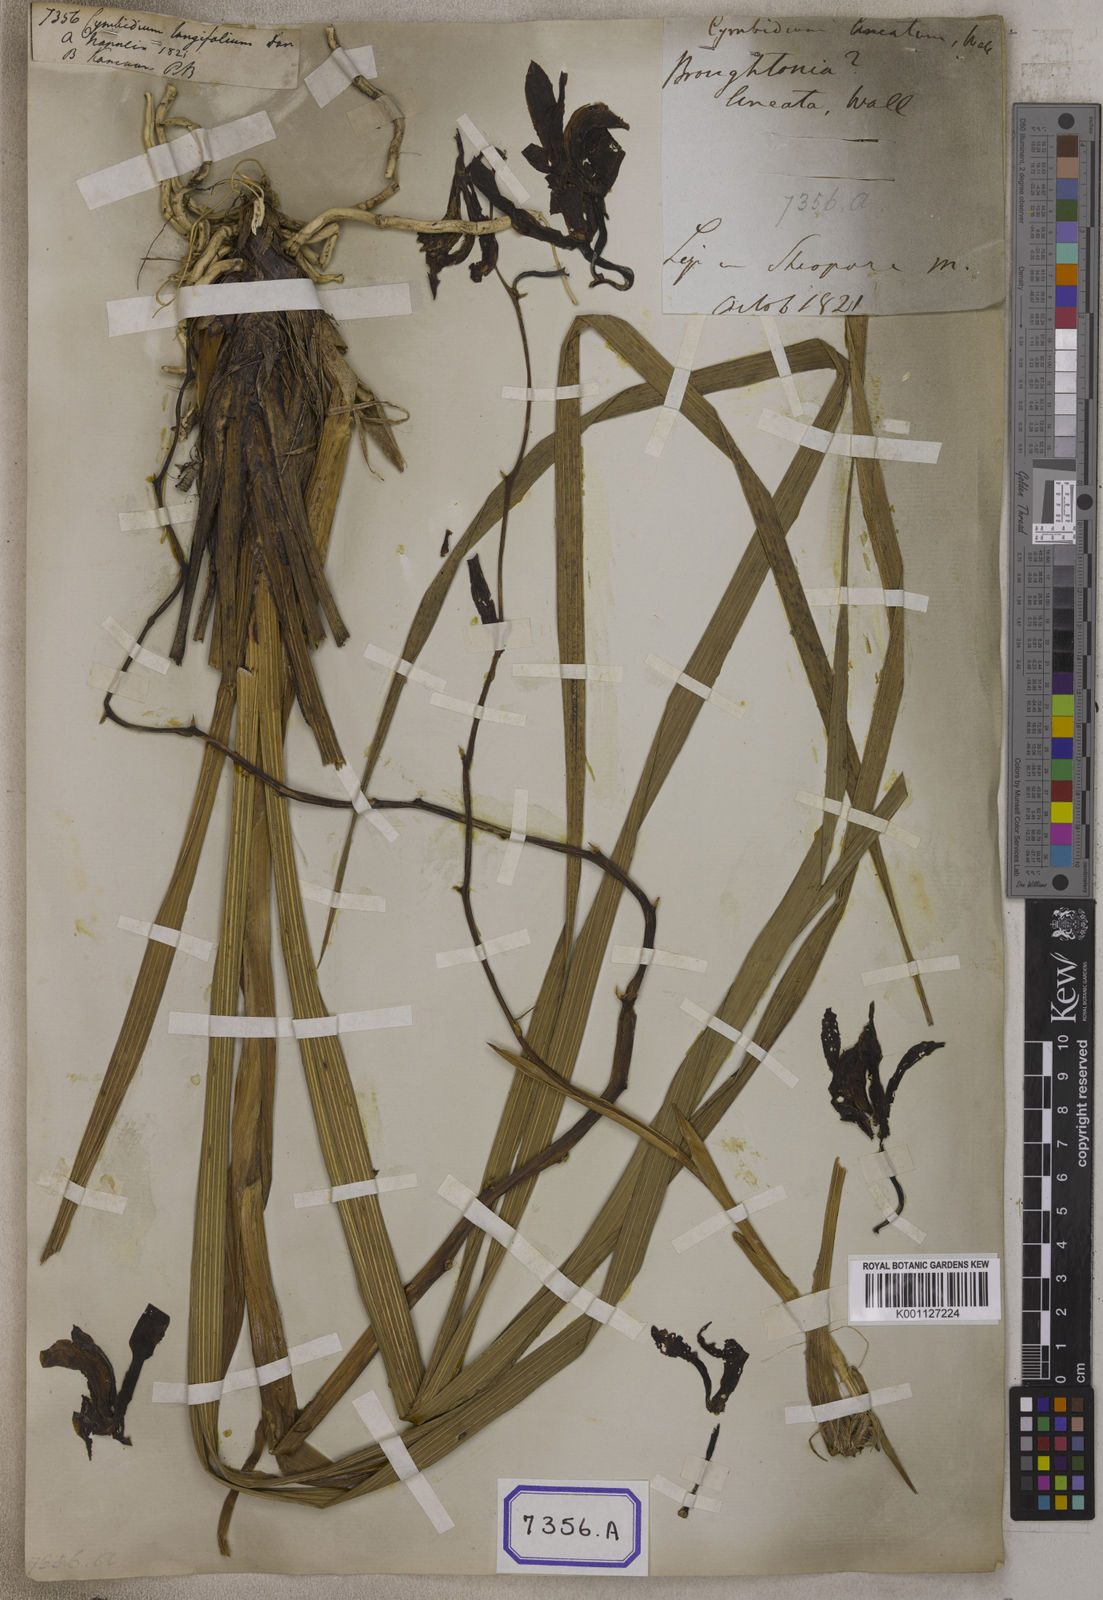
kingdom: Plantae
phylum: Tracheophyta
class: Liliopsida
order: Asparagales
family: Orchidaceae
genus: Cymbidium
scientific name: Cymbidium elegans
